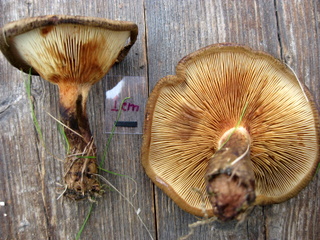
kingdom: Fungi
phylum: Basidiomycota
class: Agaricomycetes
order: Boletales
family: Paxillaceae
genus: Paxillus
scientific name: Paxillus involutus
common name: almindelig netbladhat
